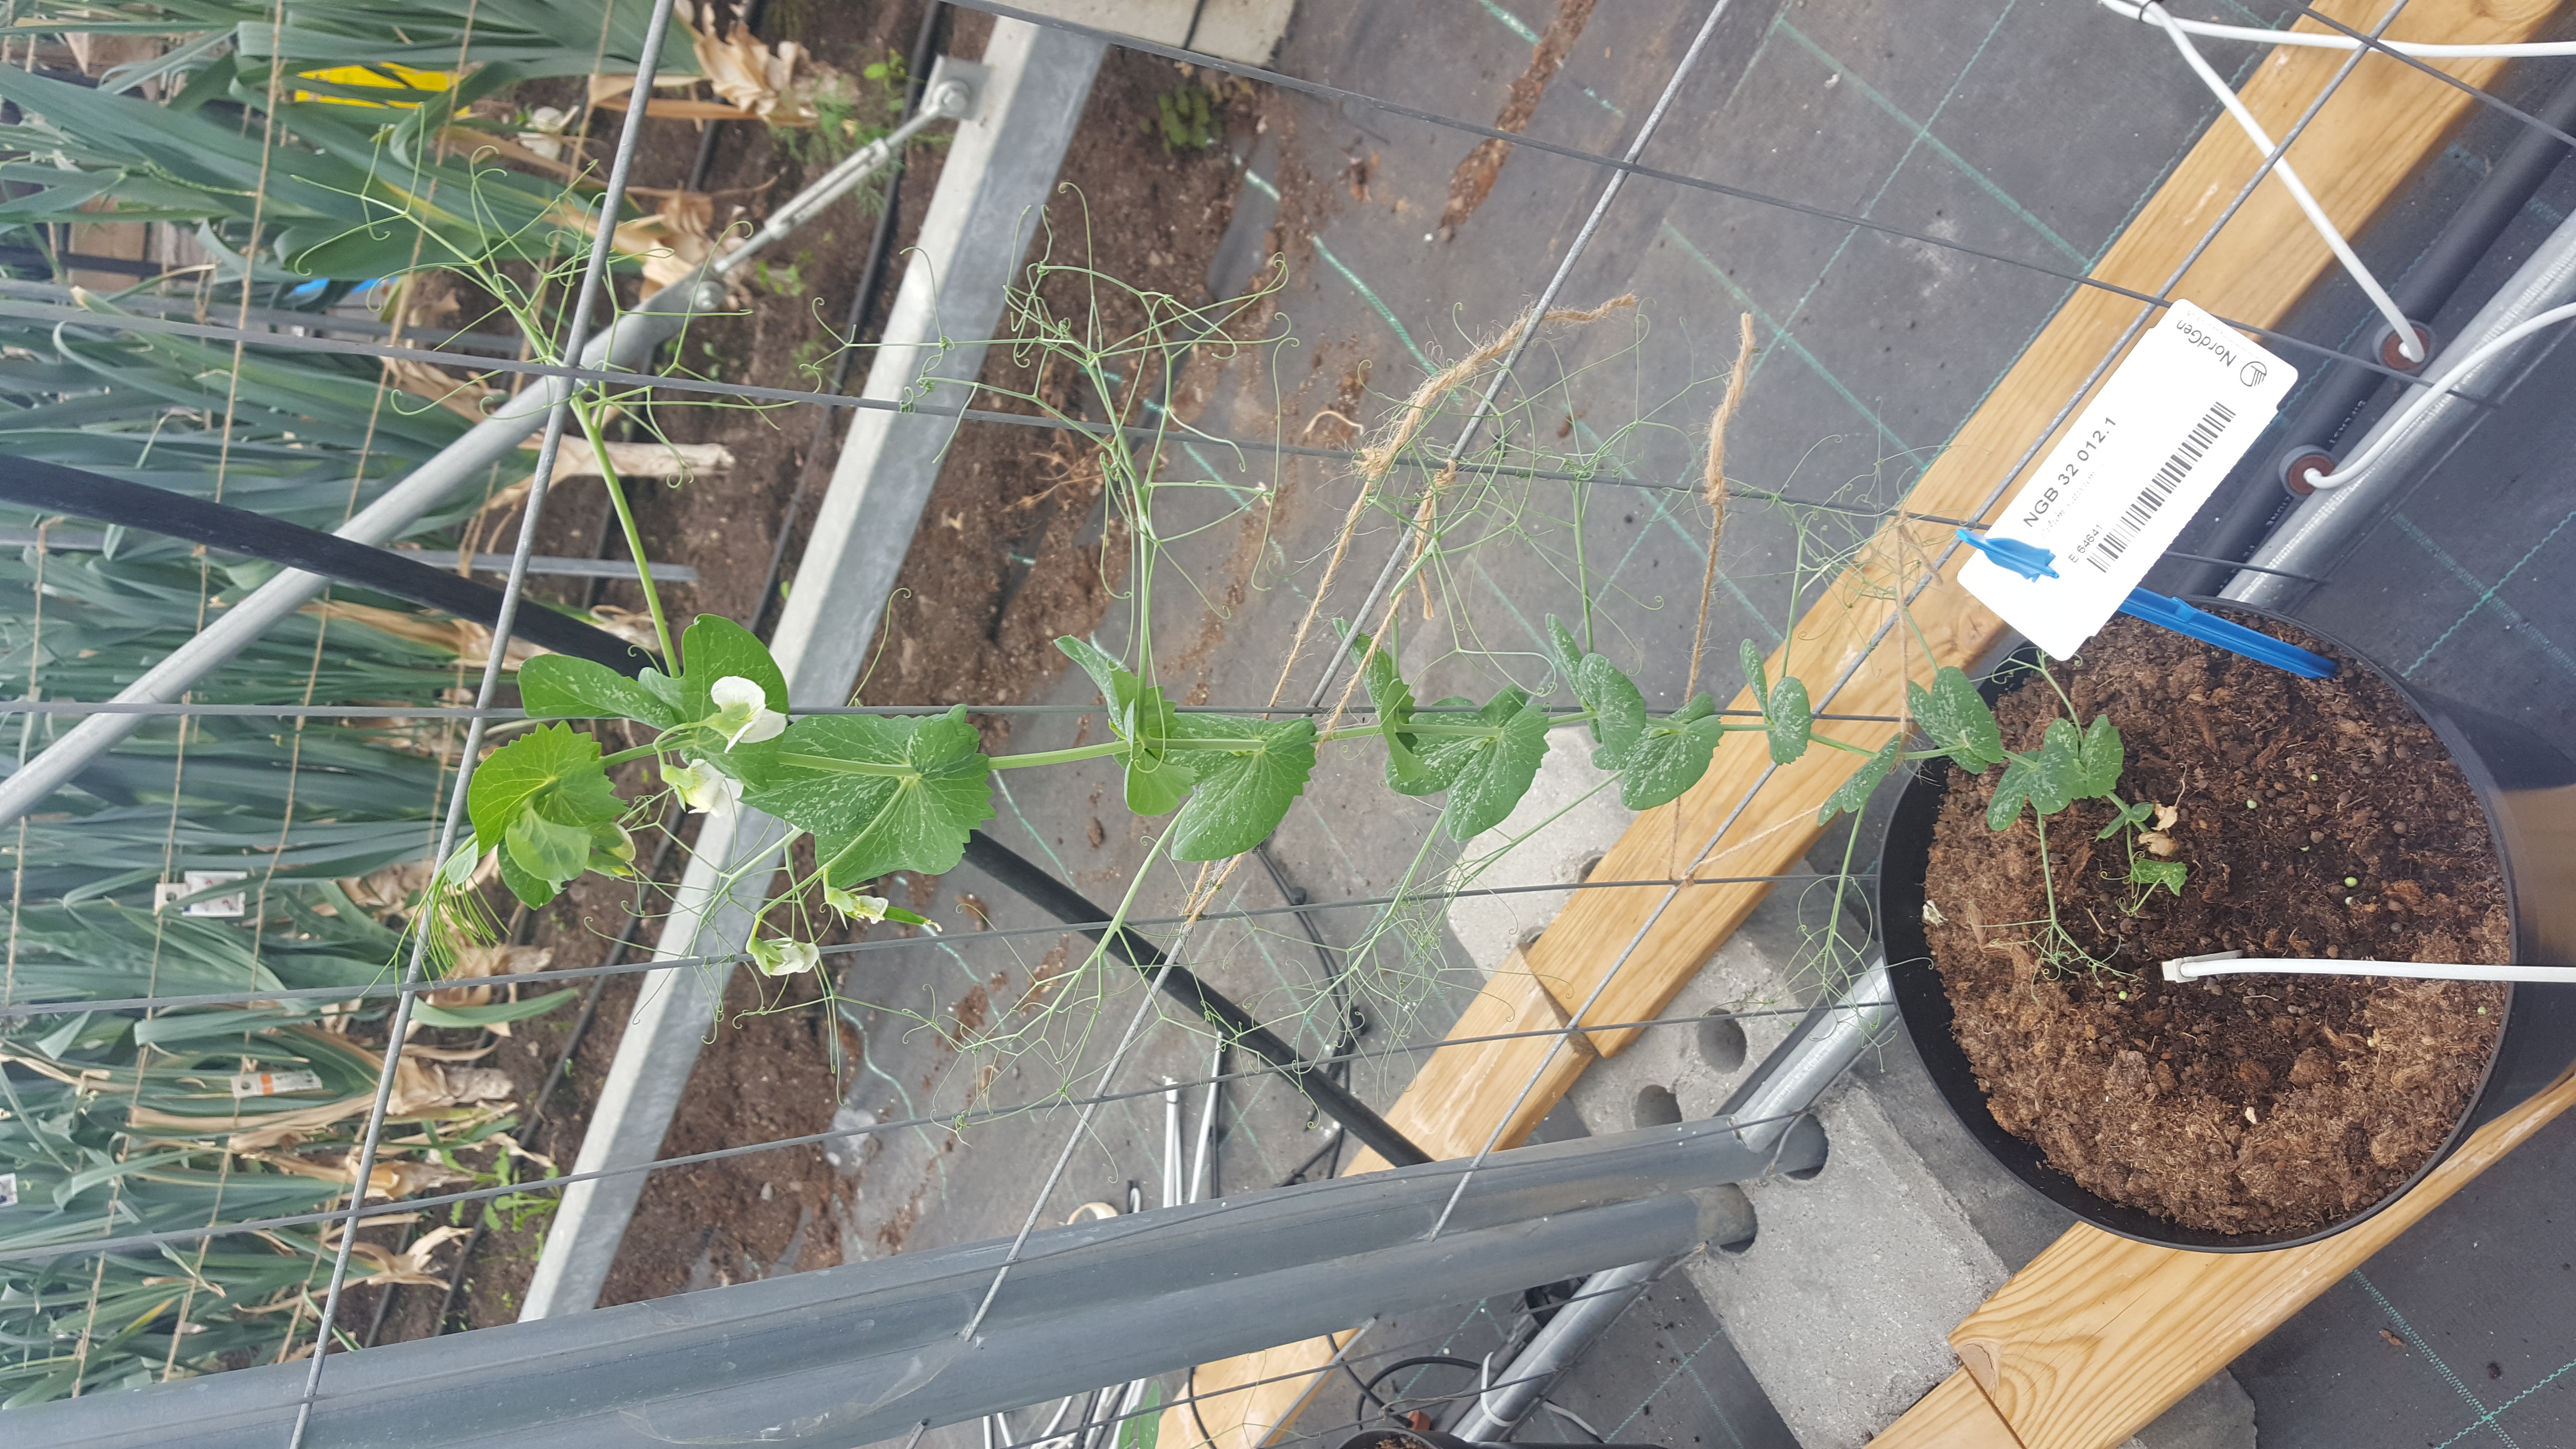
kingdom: Plantae
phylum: Tracheophyta
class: Magnoliopsida
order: Fabales
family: Fabaceae
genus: Lathyrus
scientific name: Lathyrus oleraceus
